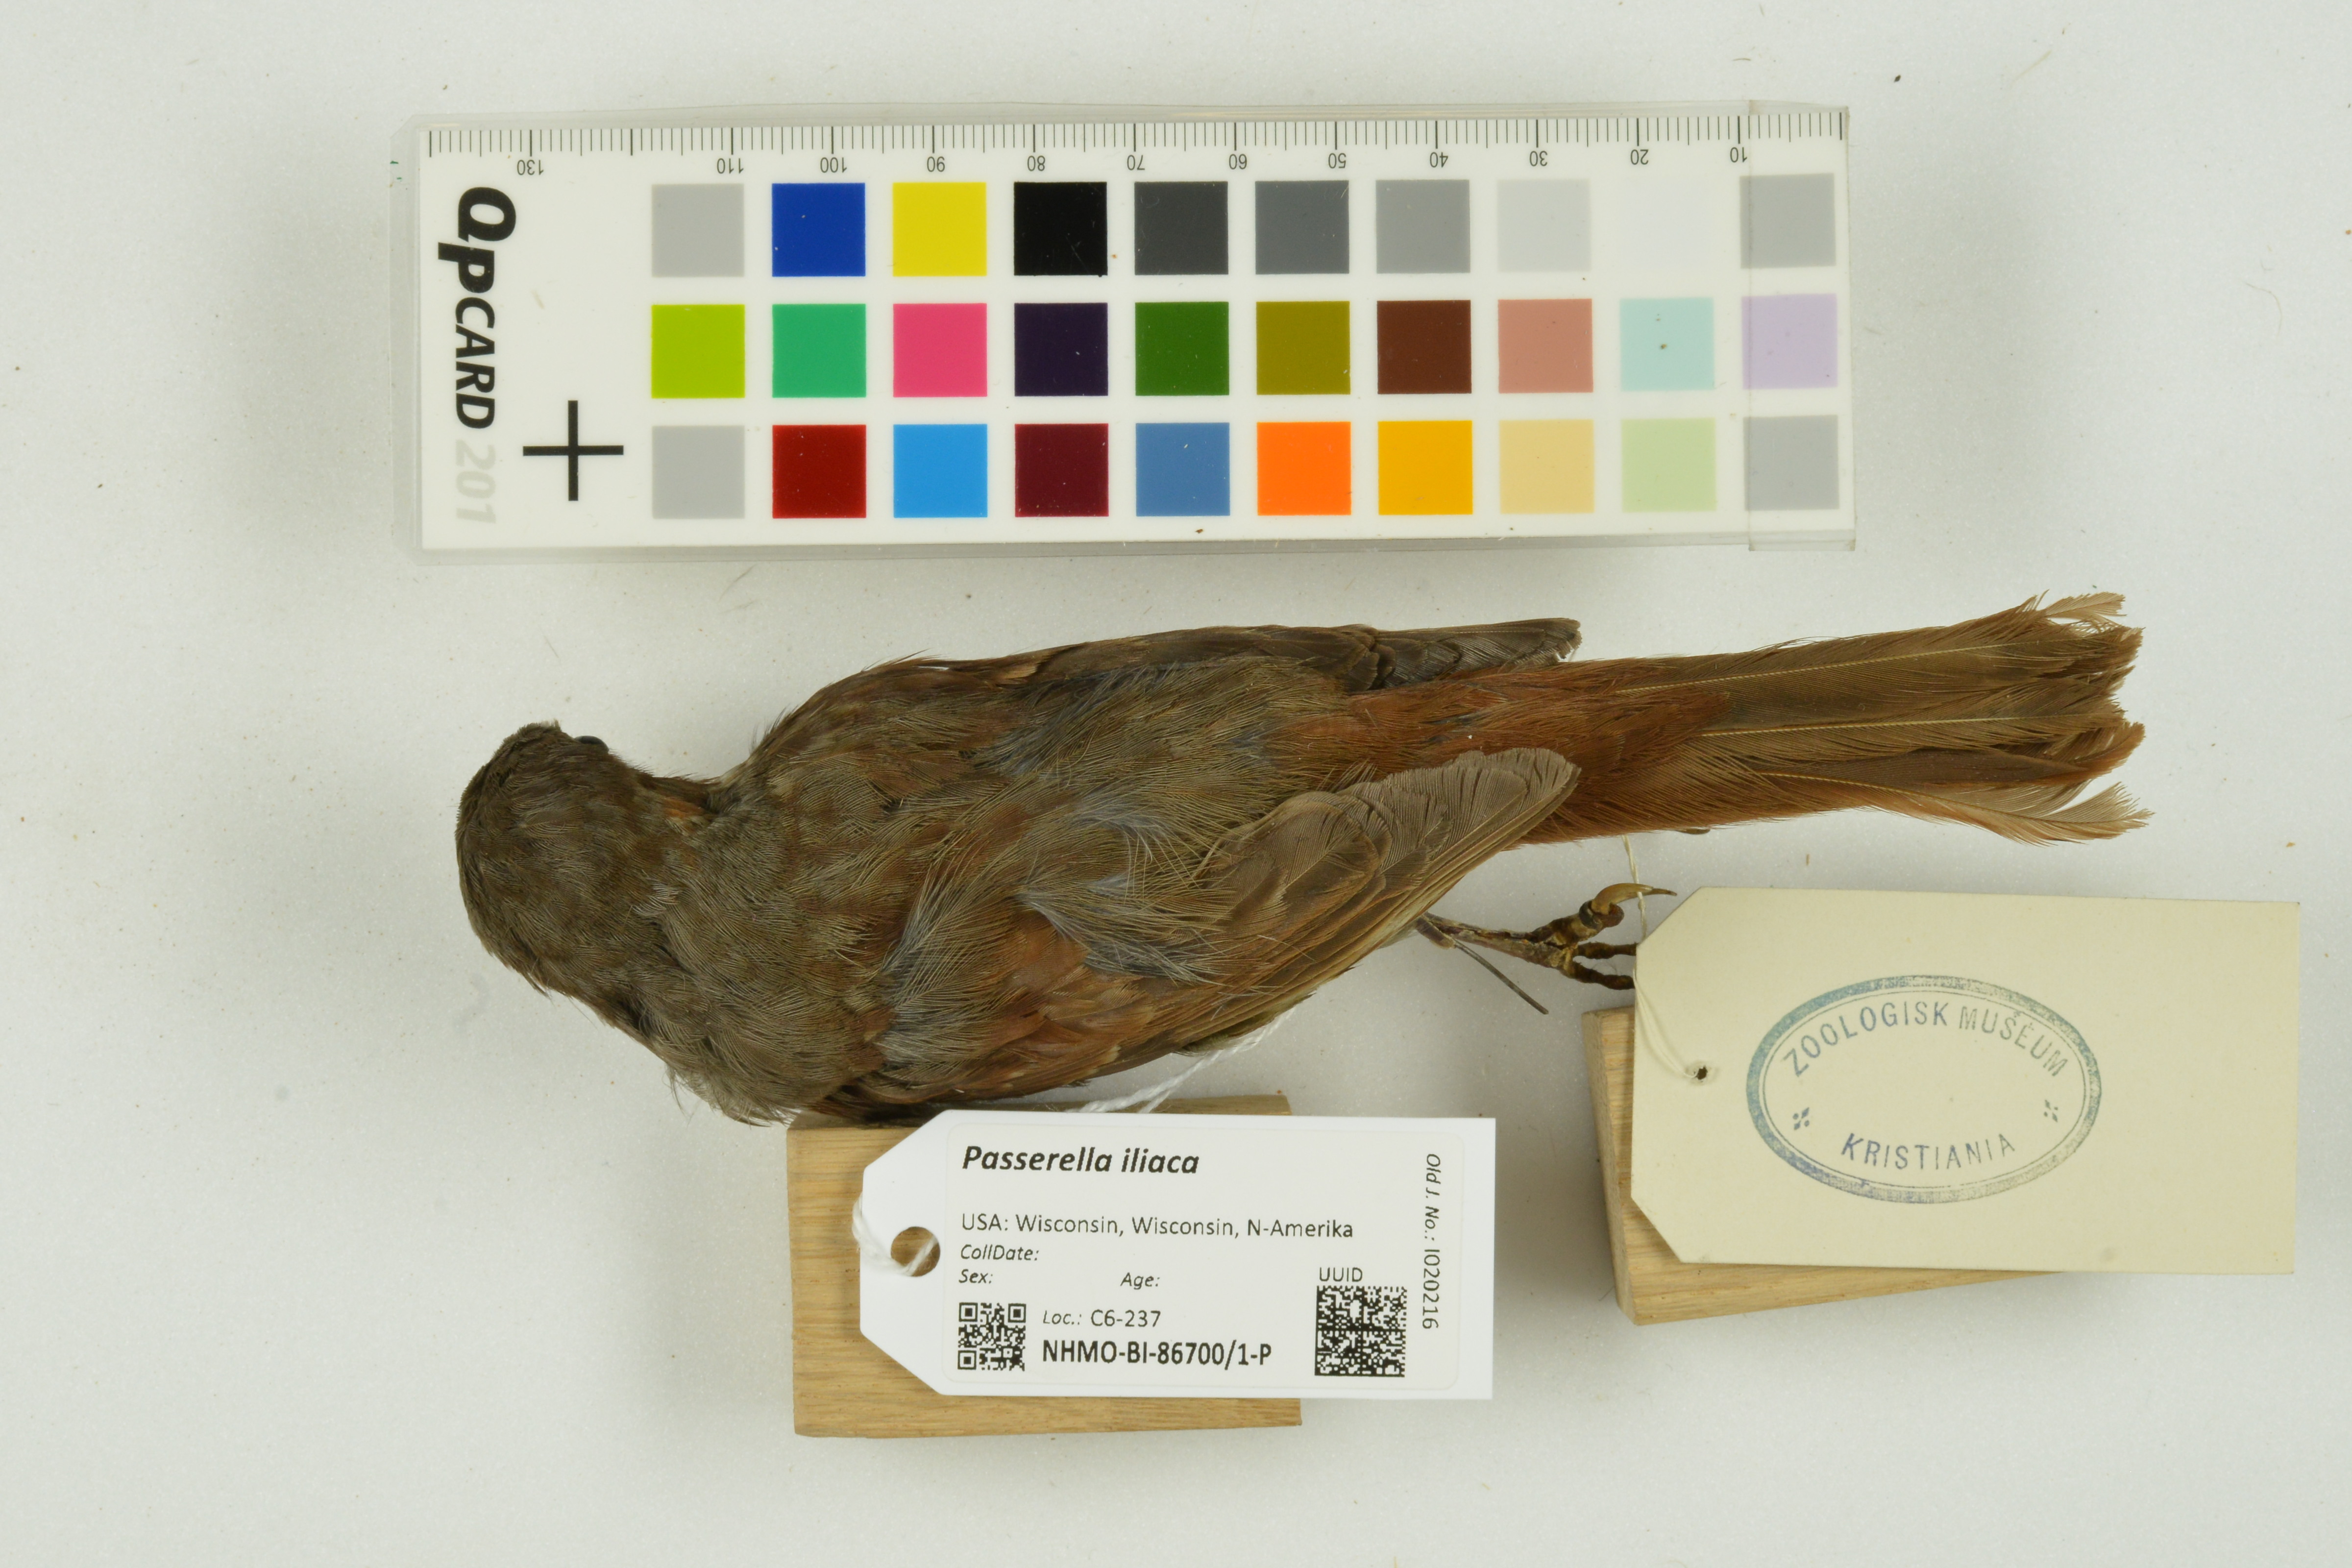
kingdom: Animalia
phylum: Chordata
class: Aves
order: Passeriformes
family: Passerellidae
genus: Passerella
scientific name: Passerella iliaca
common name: Fox sparrow
